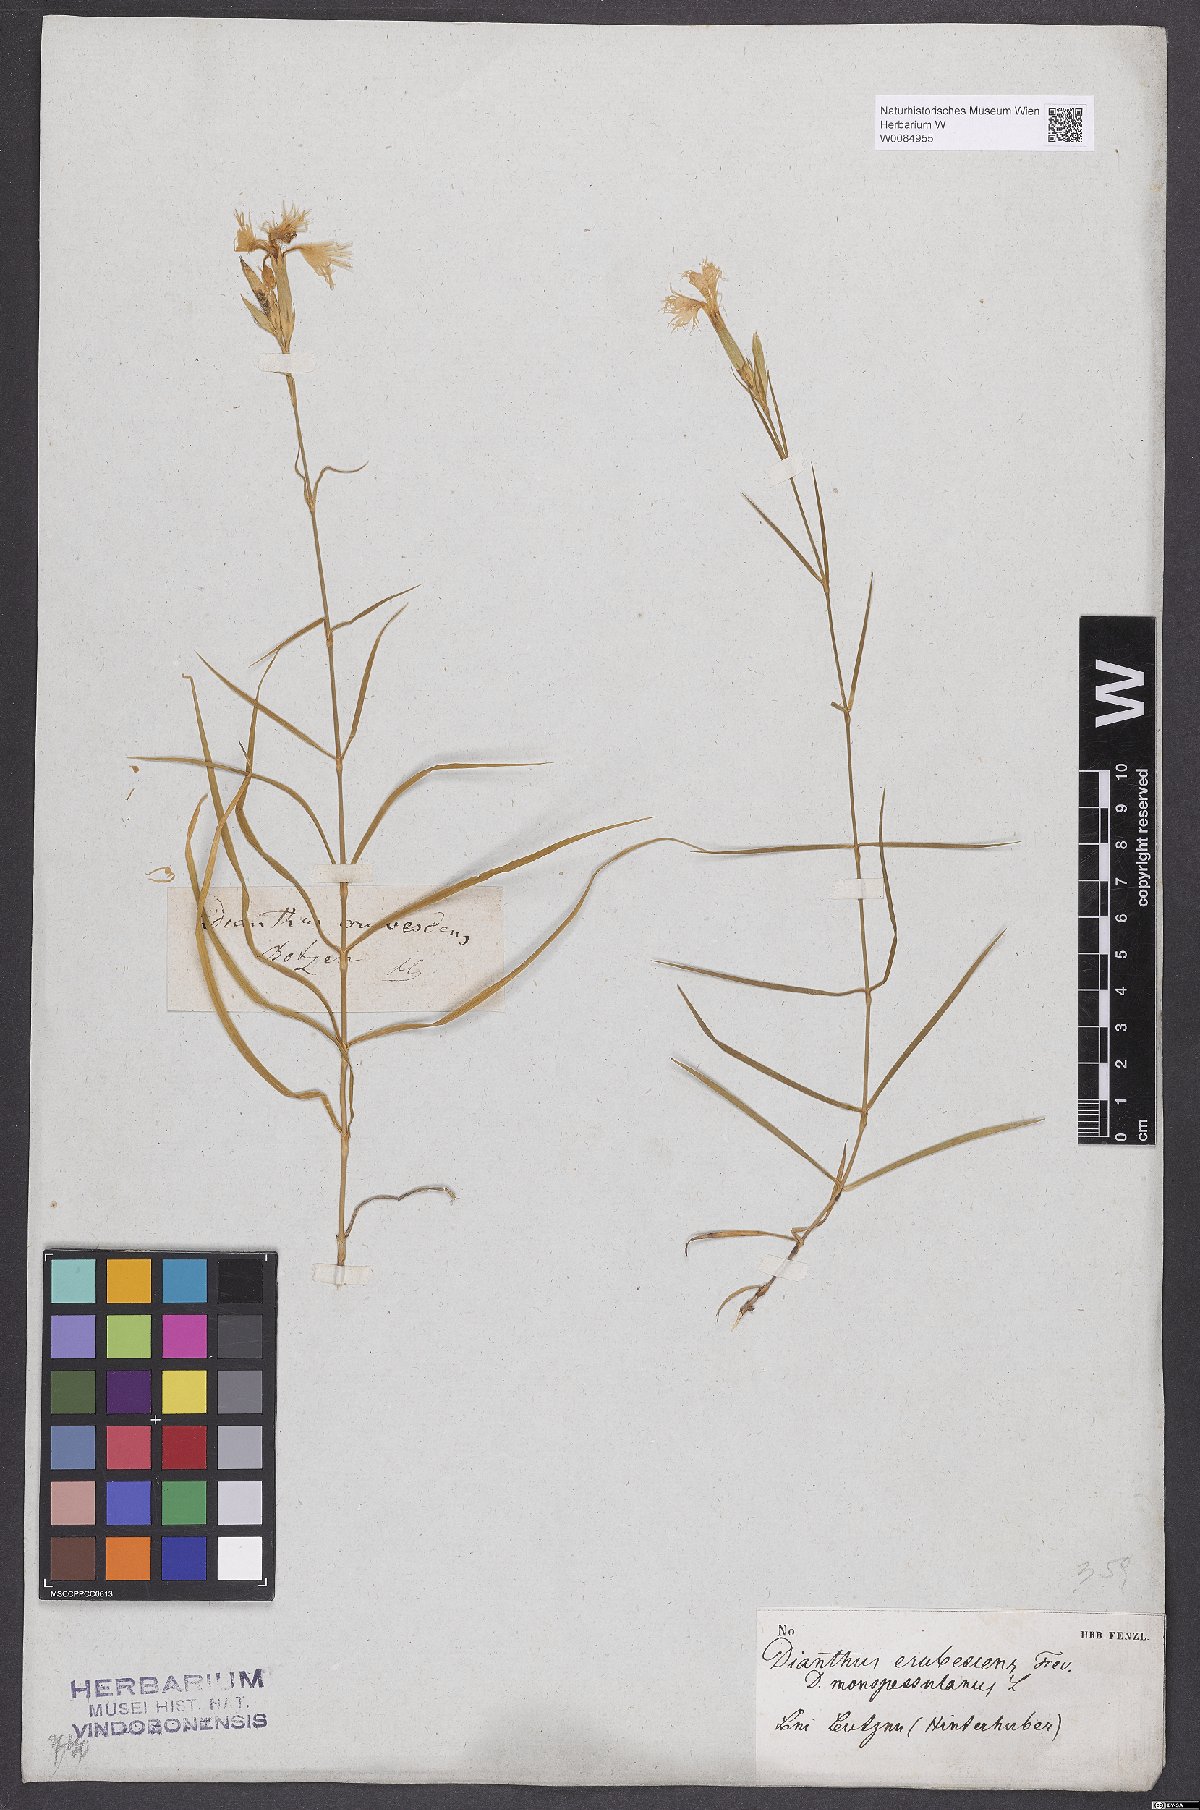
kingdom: Plantae
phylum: Tracheophyta
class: Magnoliopsida
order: Caryophyllales
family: Caryophyllaceae
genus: Dianthus
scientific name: Dianthus hyssopifolius
